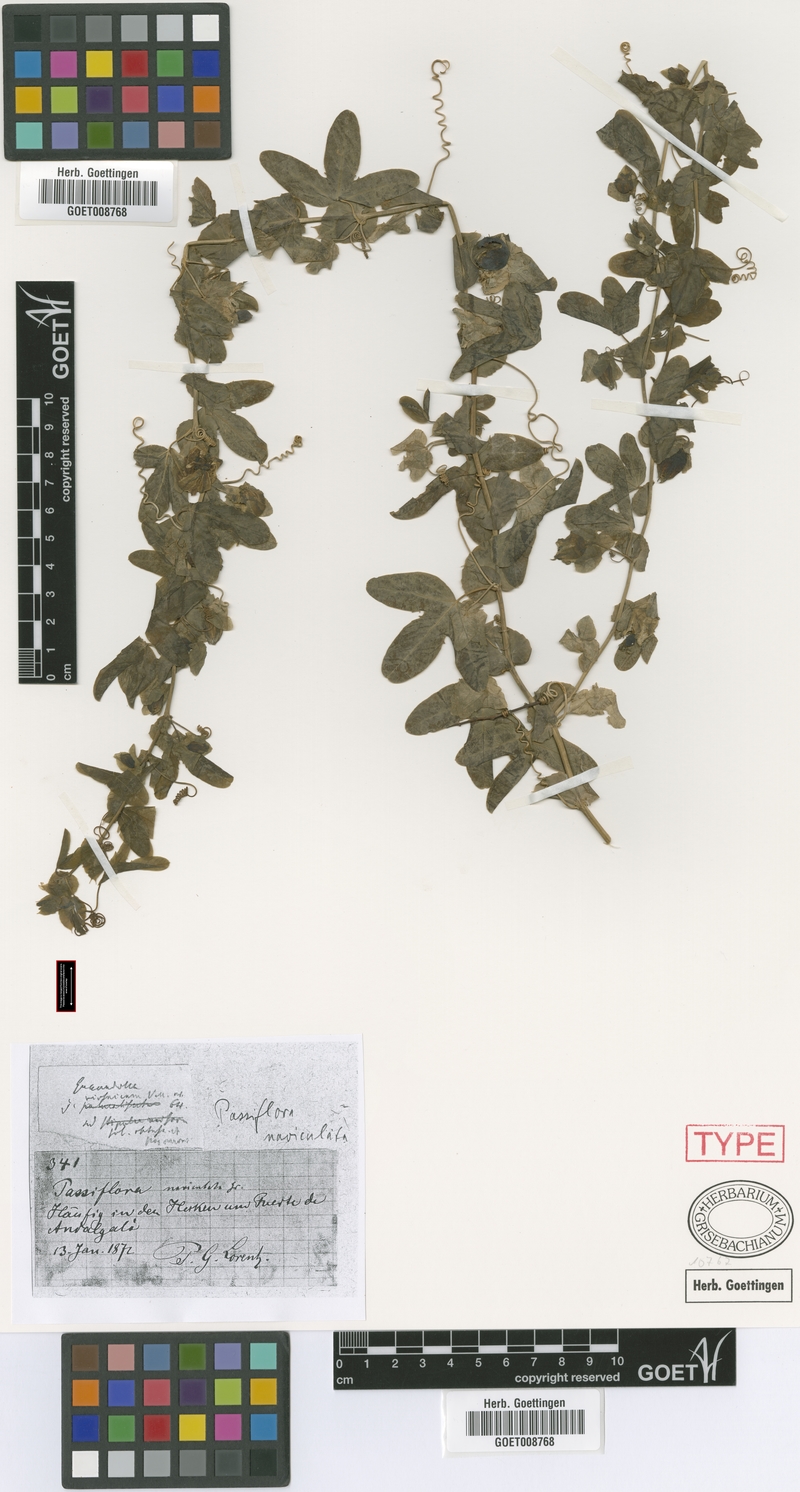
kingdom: Plantae
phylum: Tracheophyta
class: Magnoliopsida
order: Malpighiales
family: Passifloraceae
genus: Passiflora
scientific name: Passiflora tucumanensis
